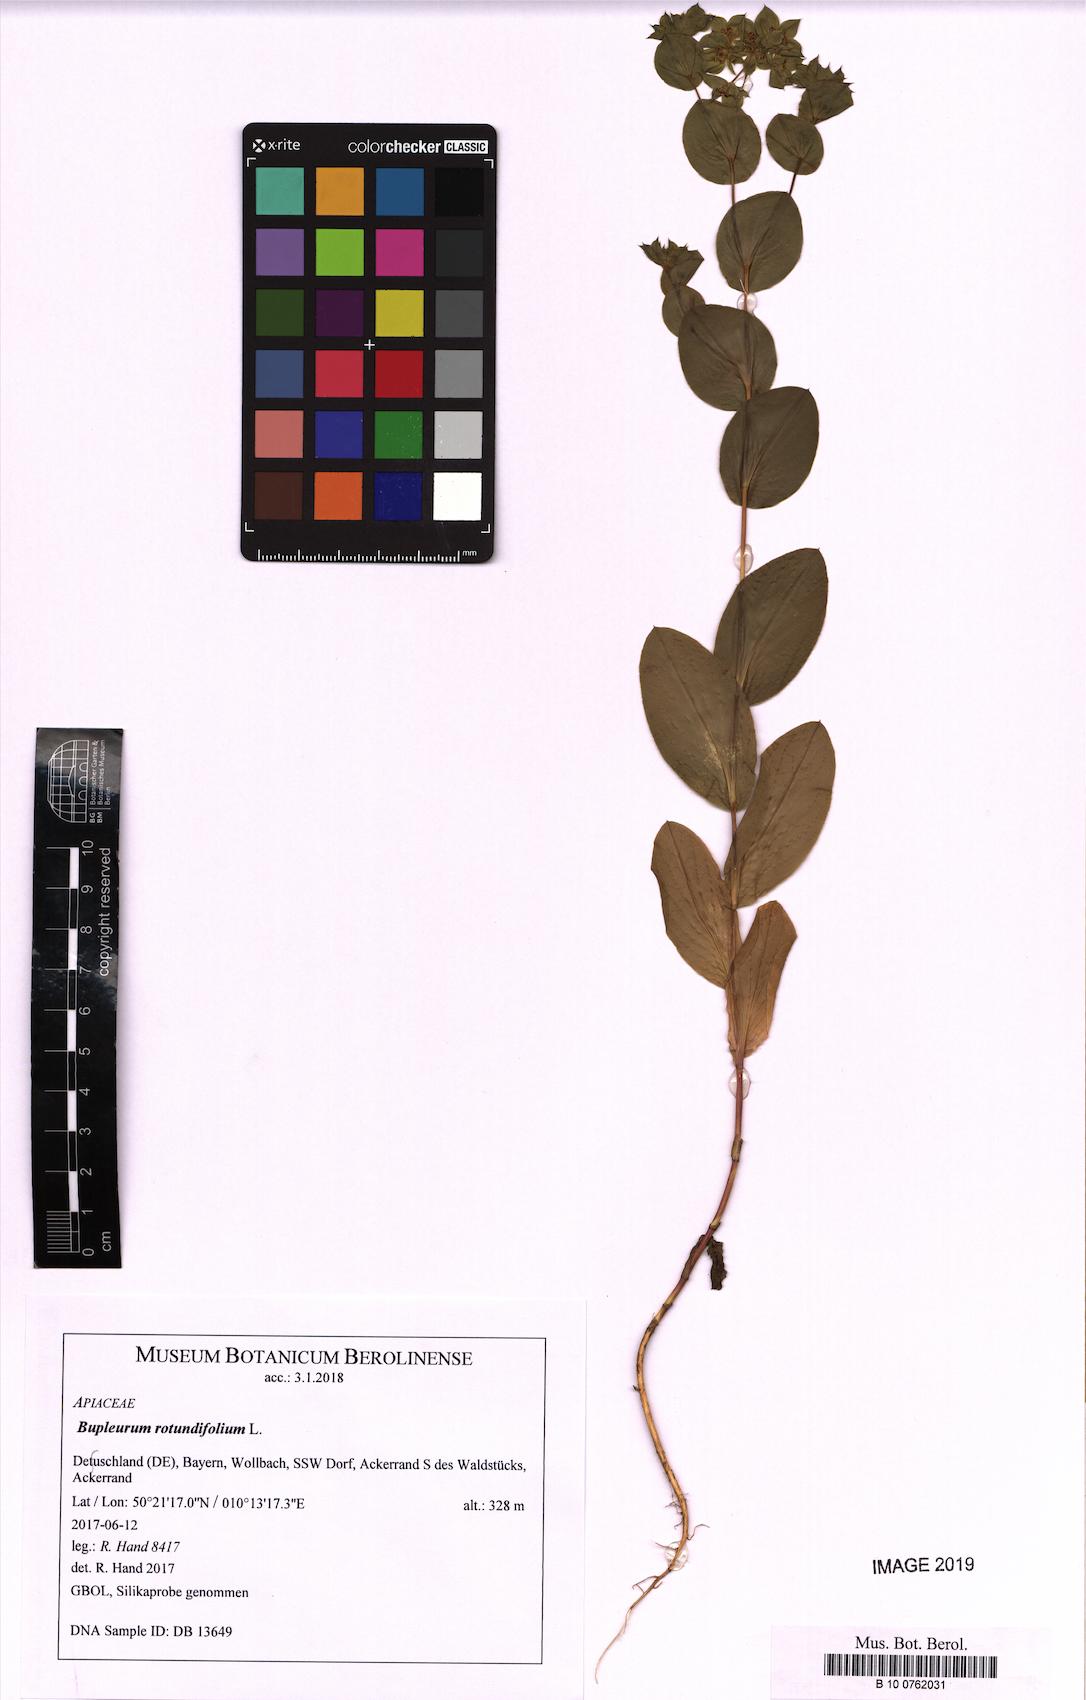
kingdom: Plantae
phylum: Tracheophyta
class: Magnoliopsida
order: Apiales
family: Apiaceae
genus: Bupleurum
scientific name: Bupleurum rotundifolium
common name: Thorow-wax
